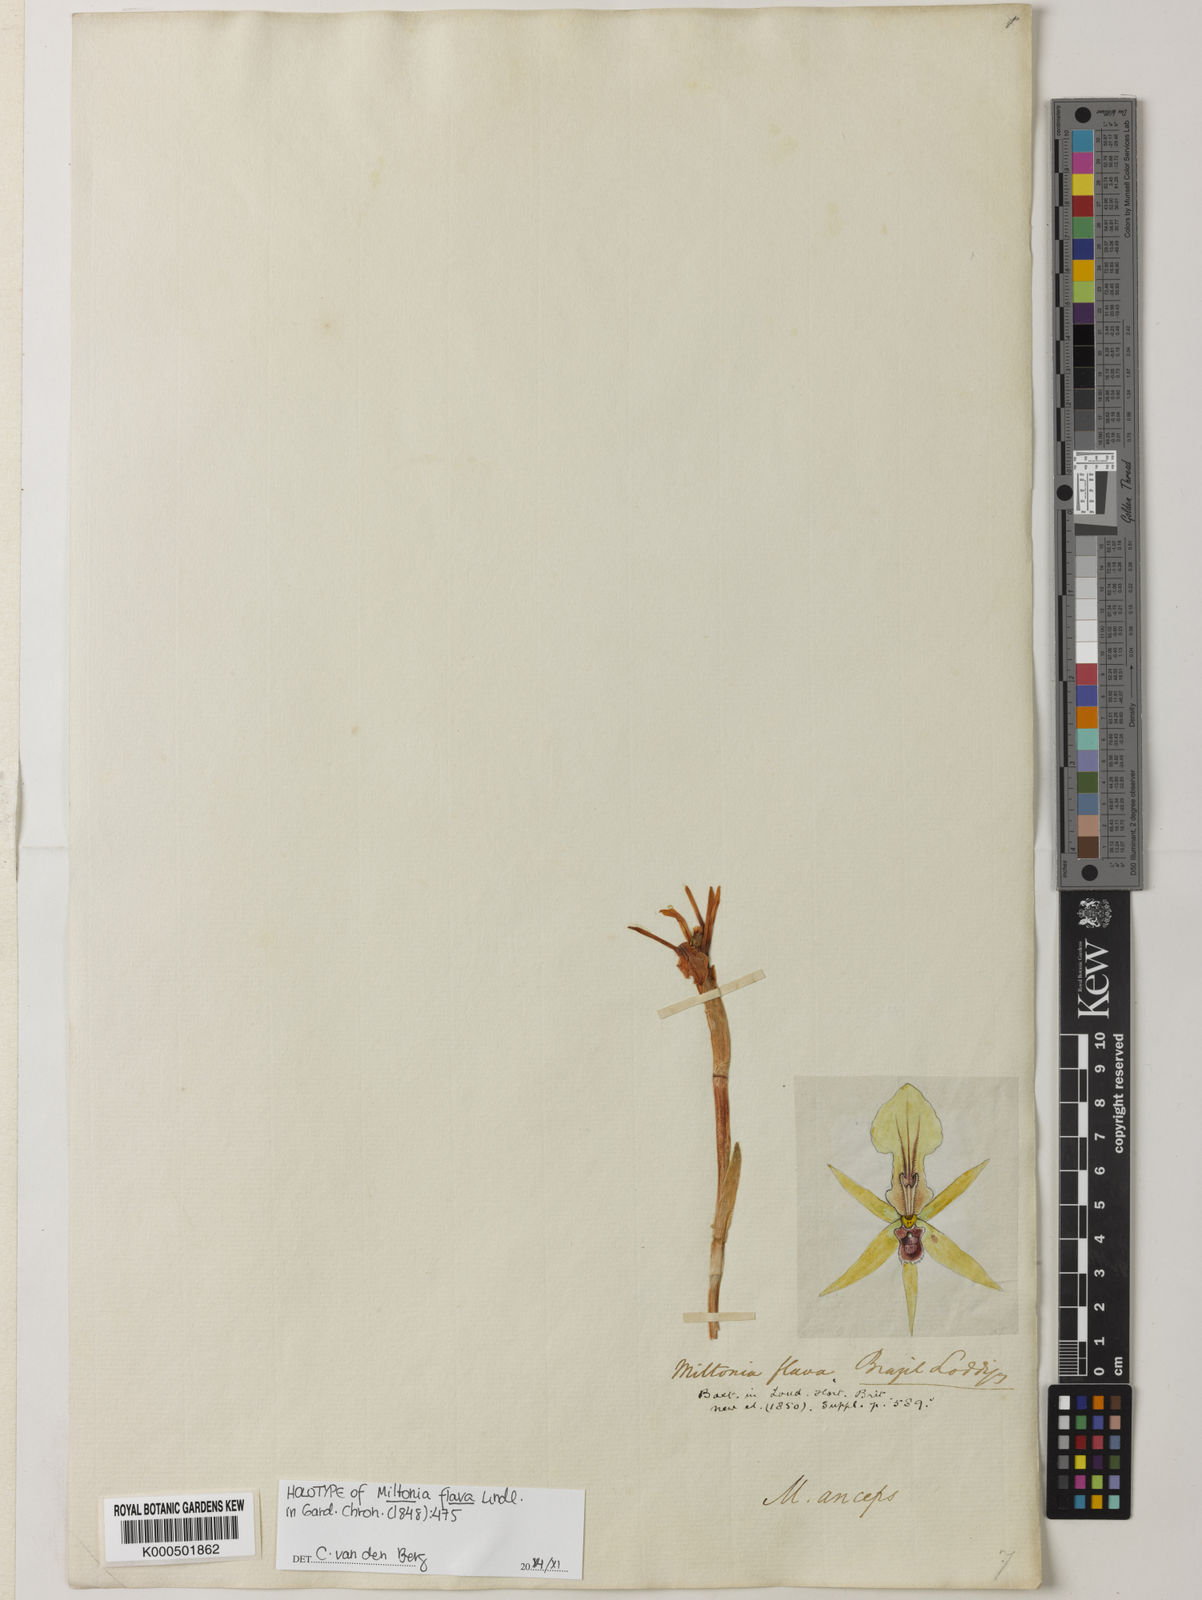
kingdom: Plantae
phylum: Tracheophyta
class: Liliopsida
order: Asparagales
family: Orchidaceae
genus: Miltonia
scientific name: Miltonia flava
